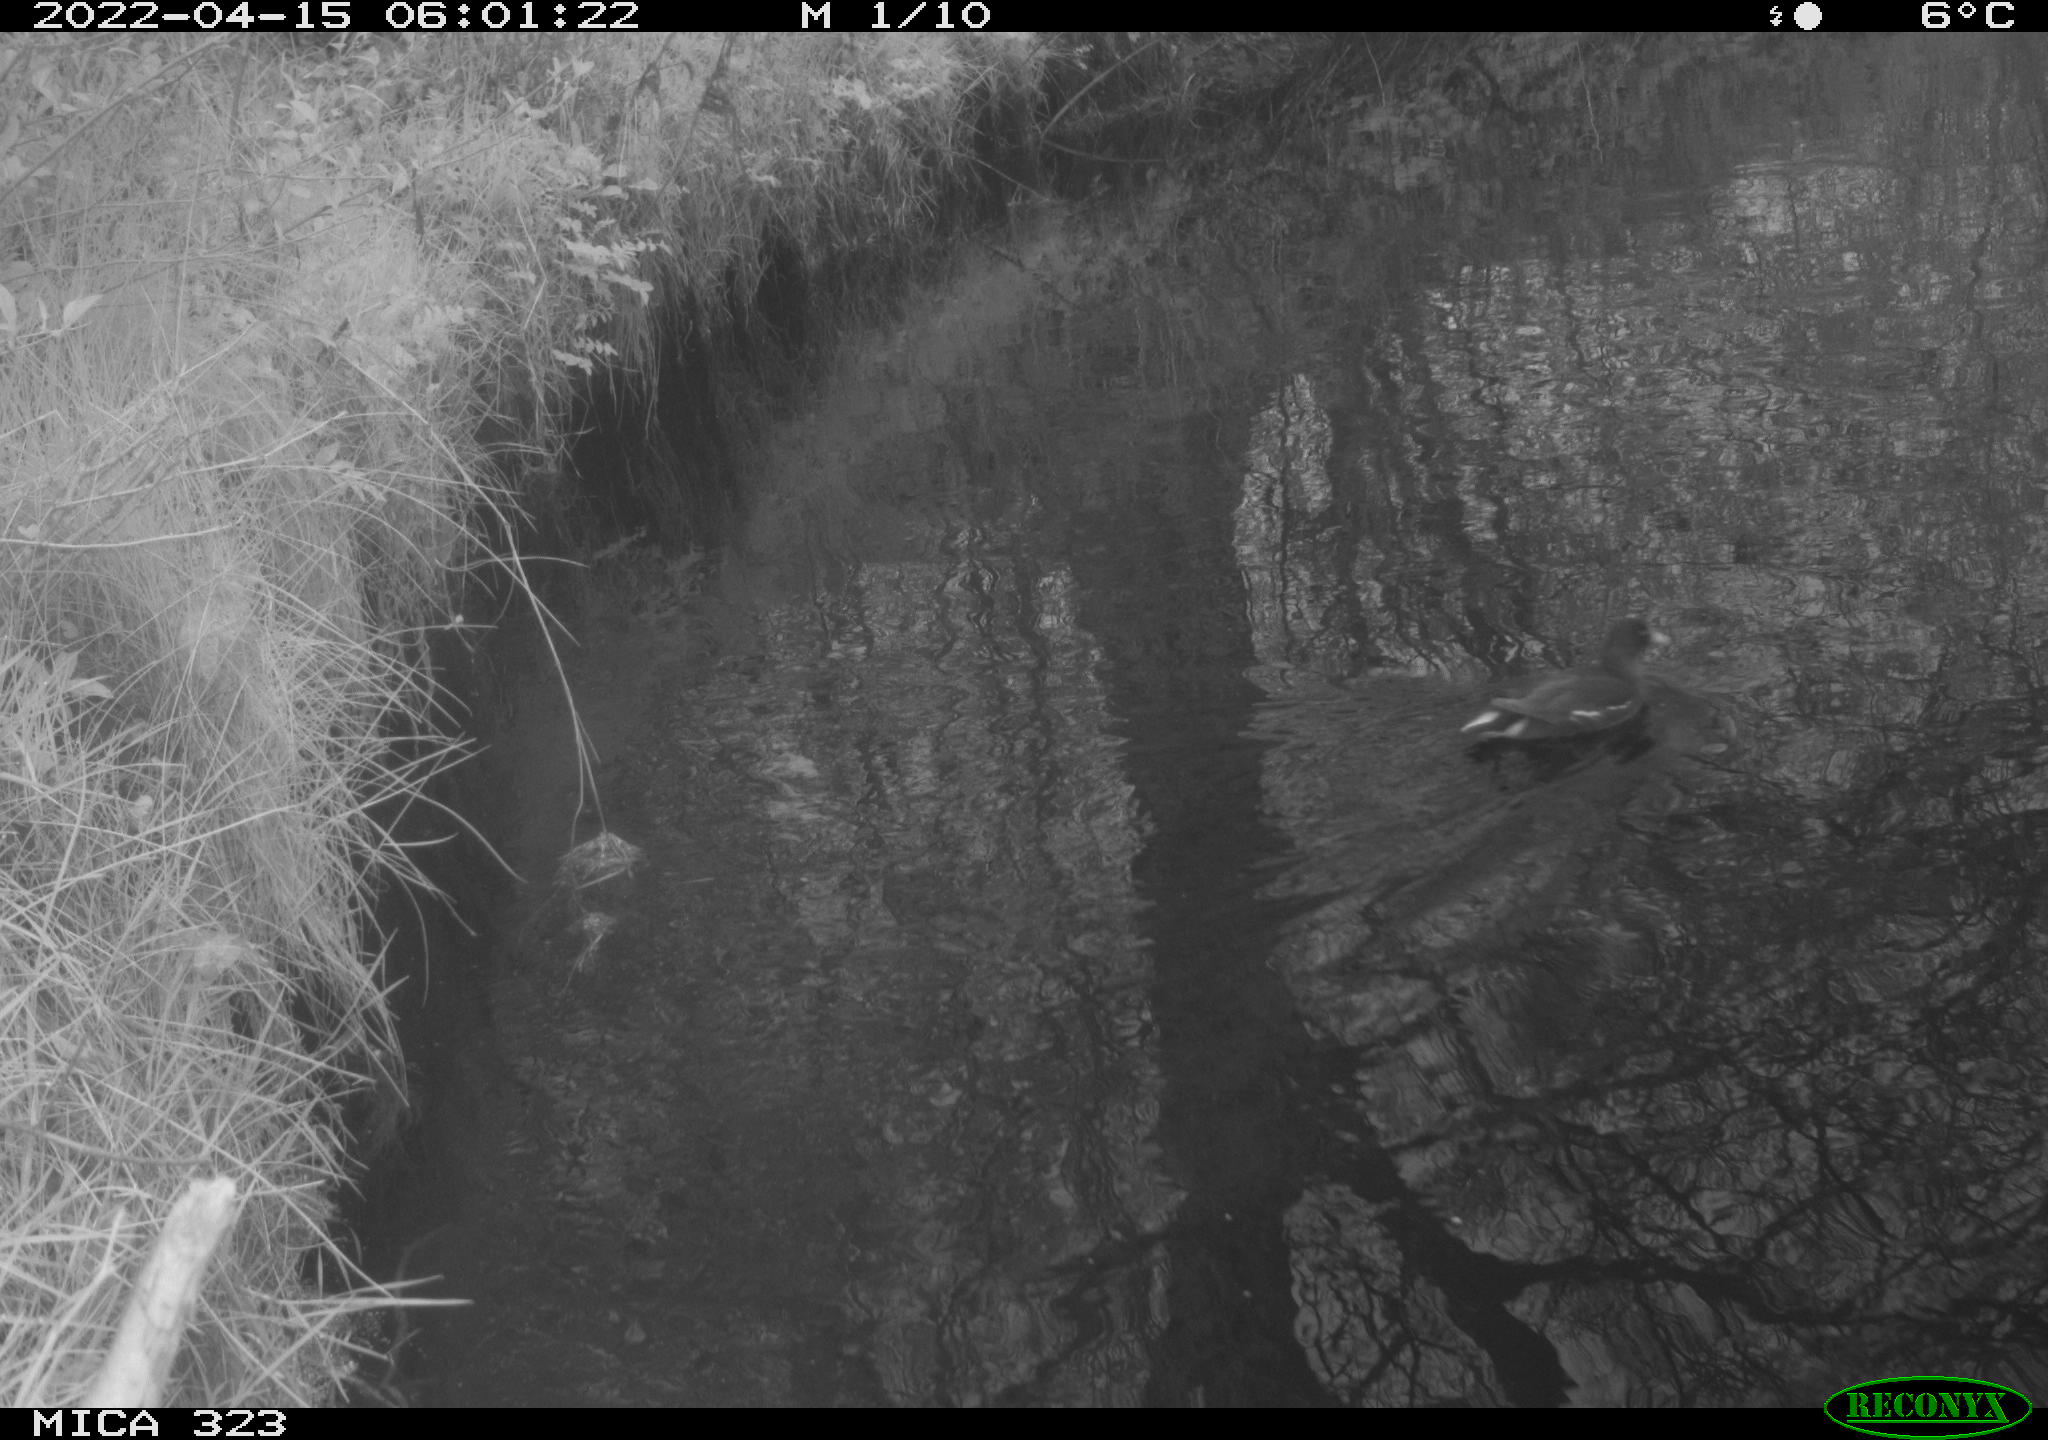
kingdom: Animalia
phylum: Chordata
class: Aves
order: Gruiformes
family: Rallidae
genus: Gallinula
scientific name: Gallinula chloropus
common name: Common moorhen
